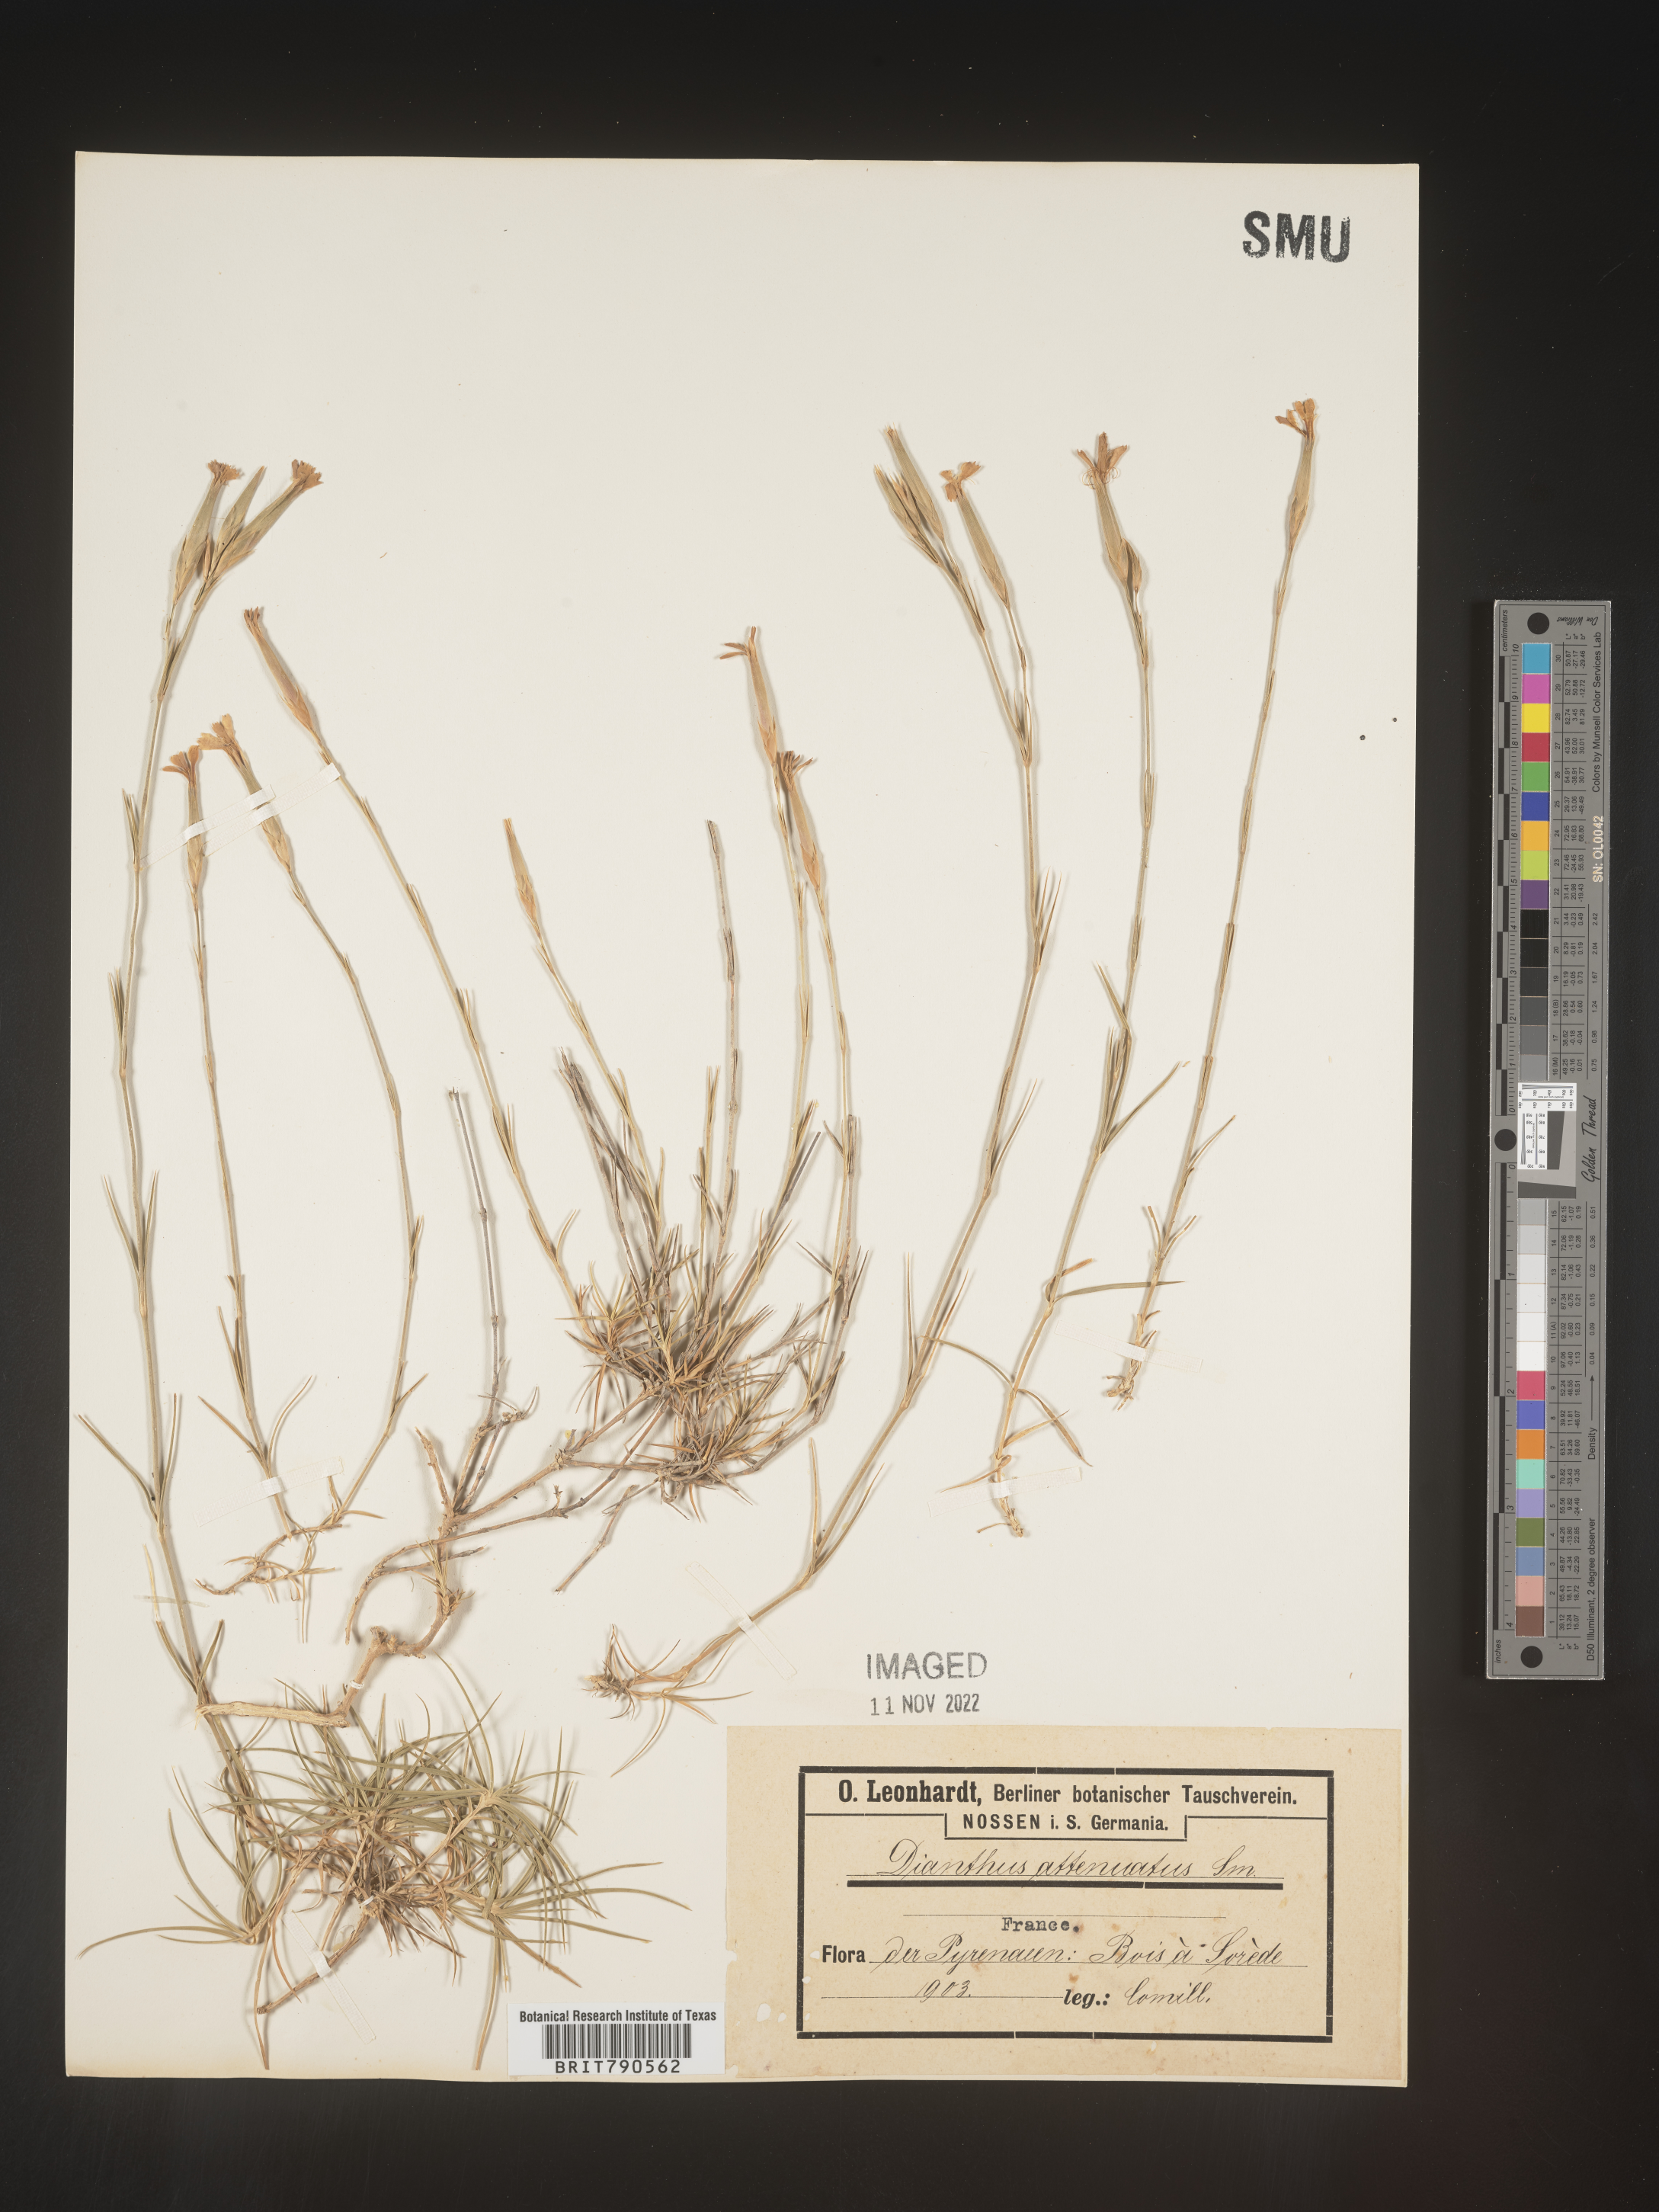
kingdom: Plantae
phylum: Tracheophyta
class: Magnoliopsida
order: Caryophyllales
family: Caryophyllaceae
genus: Dianthus
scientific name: Dianthus
